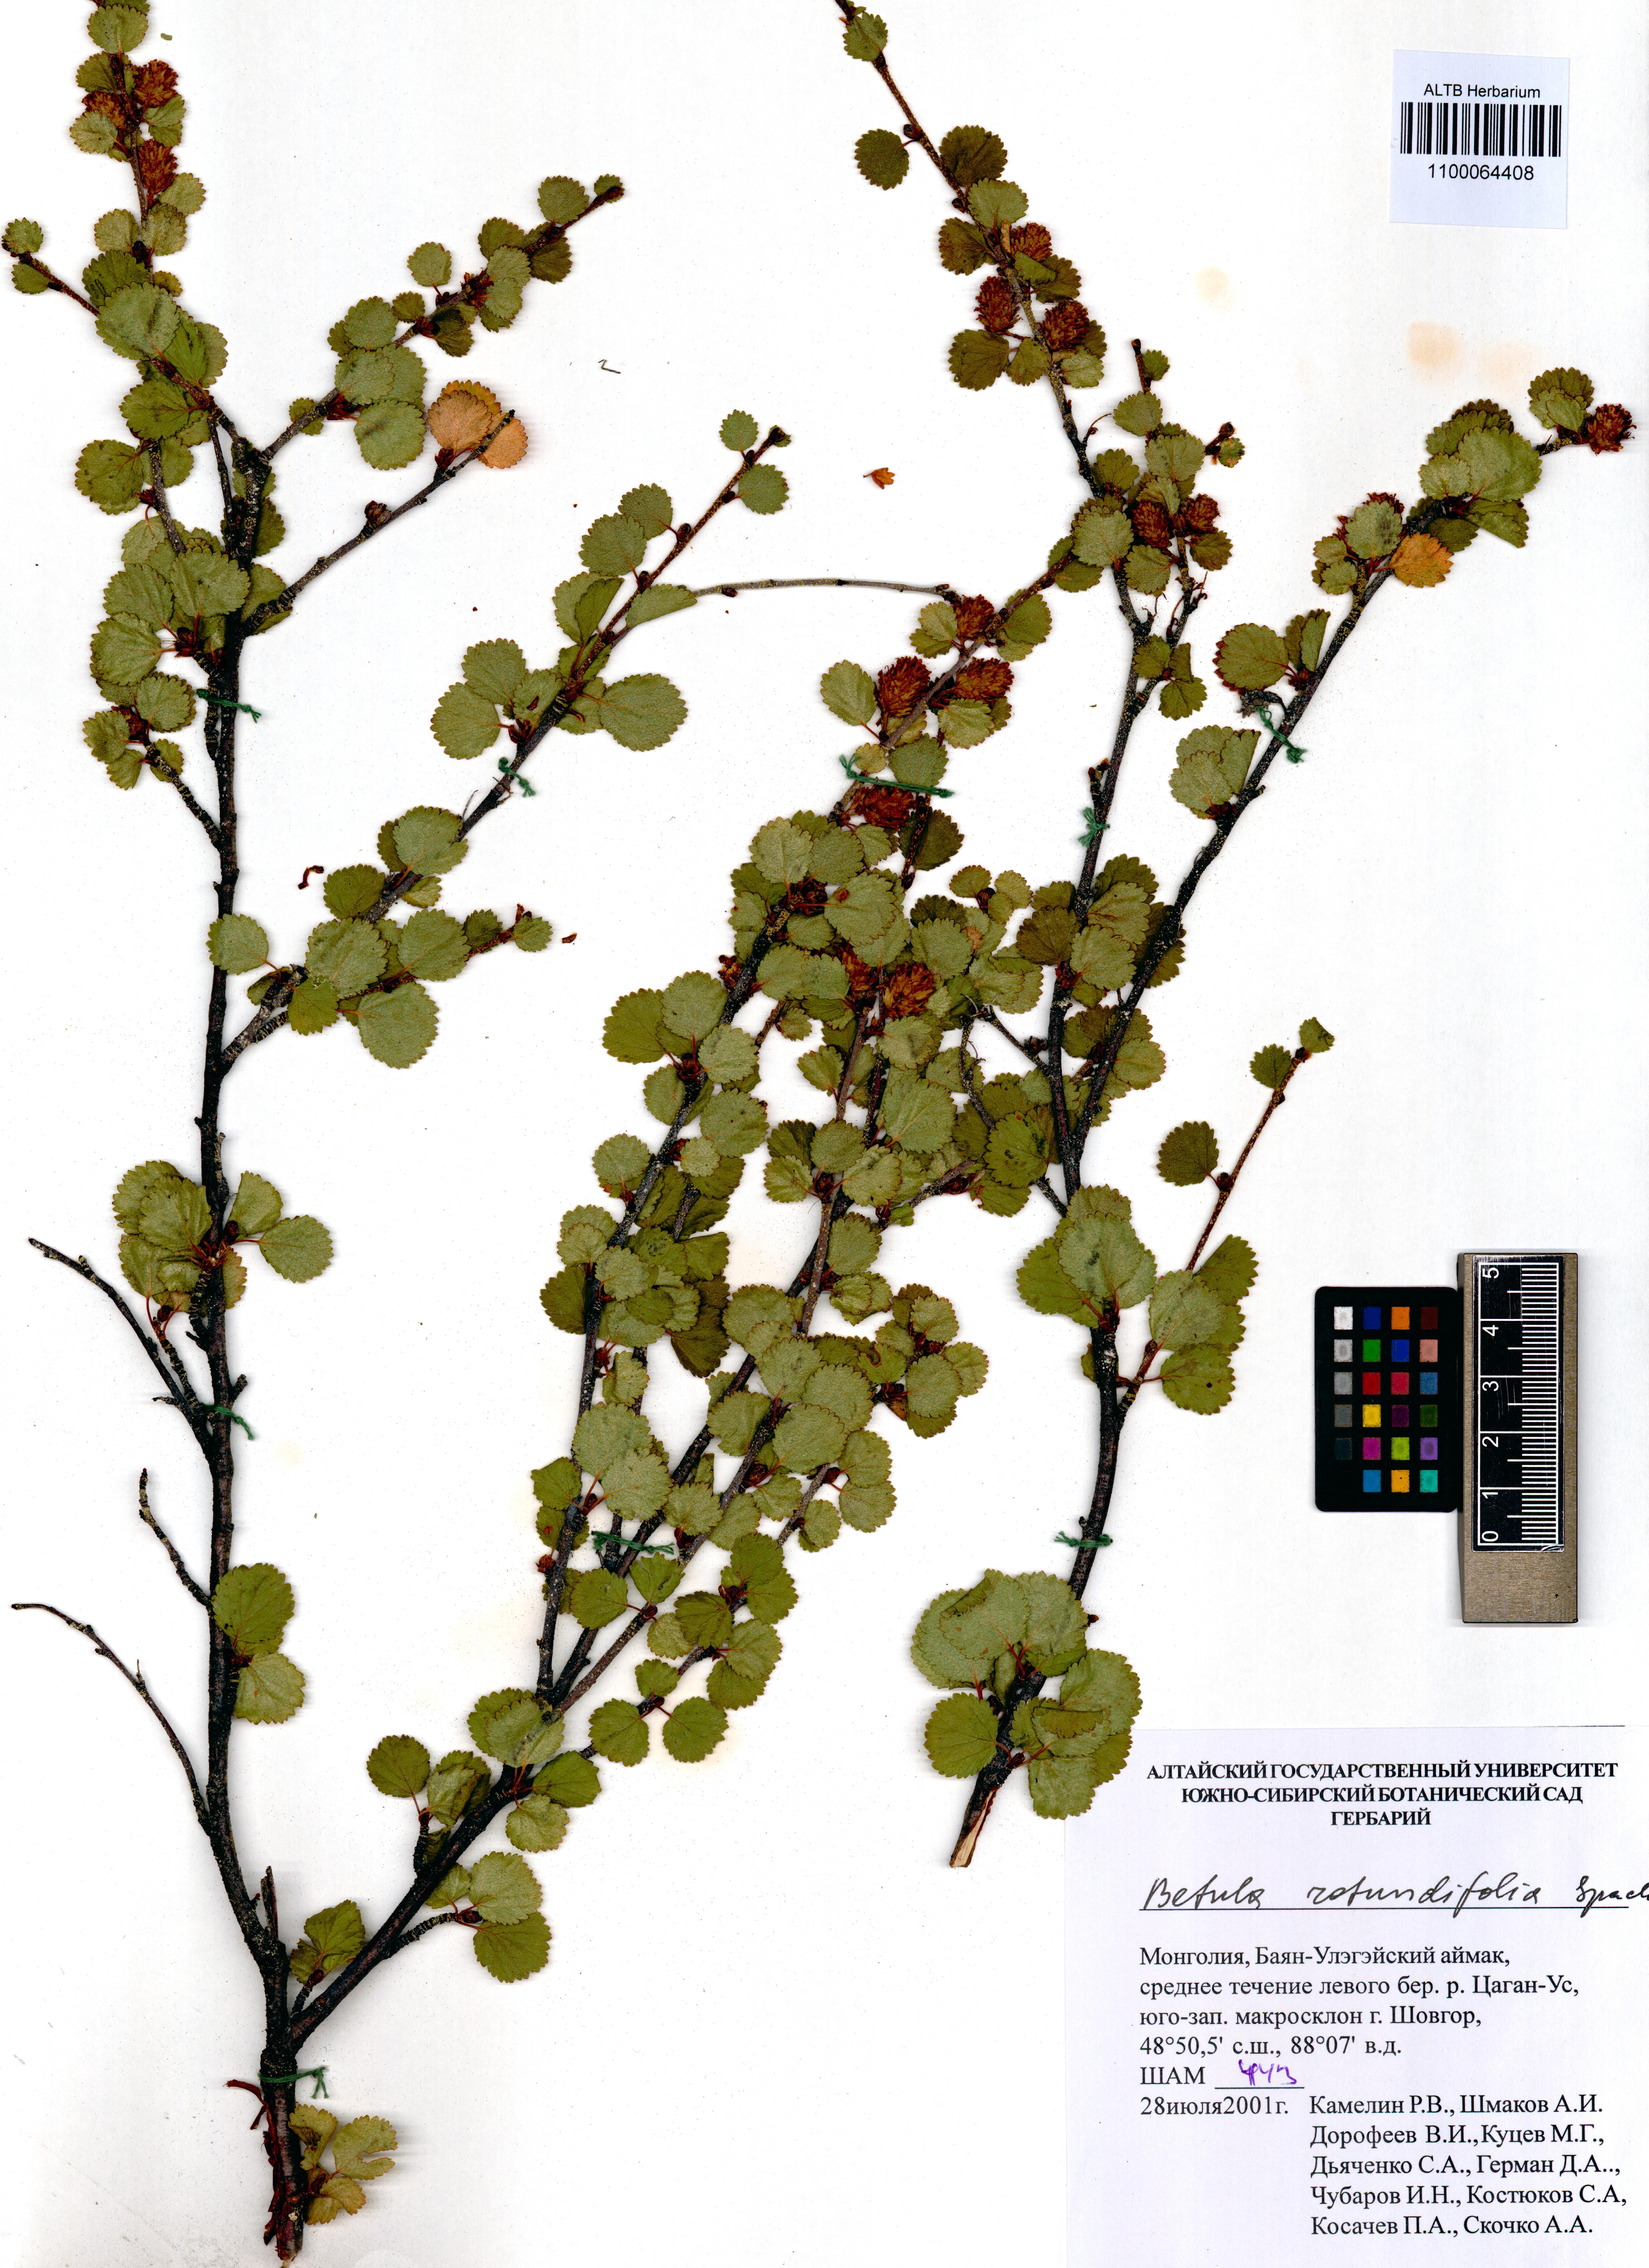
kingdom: Plantae
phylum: Tracheophyta
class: Magnoliopsida
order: Fagales
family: Betulaceae
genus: Betula
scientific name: Betula glandulosa
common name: Dwarf birch
